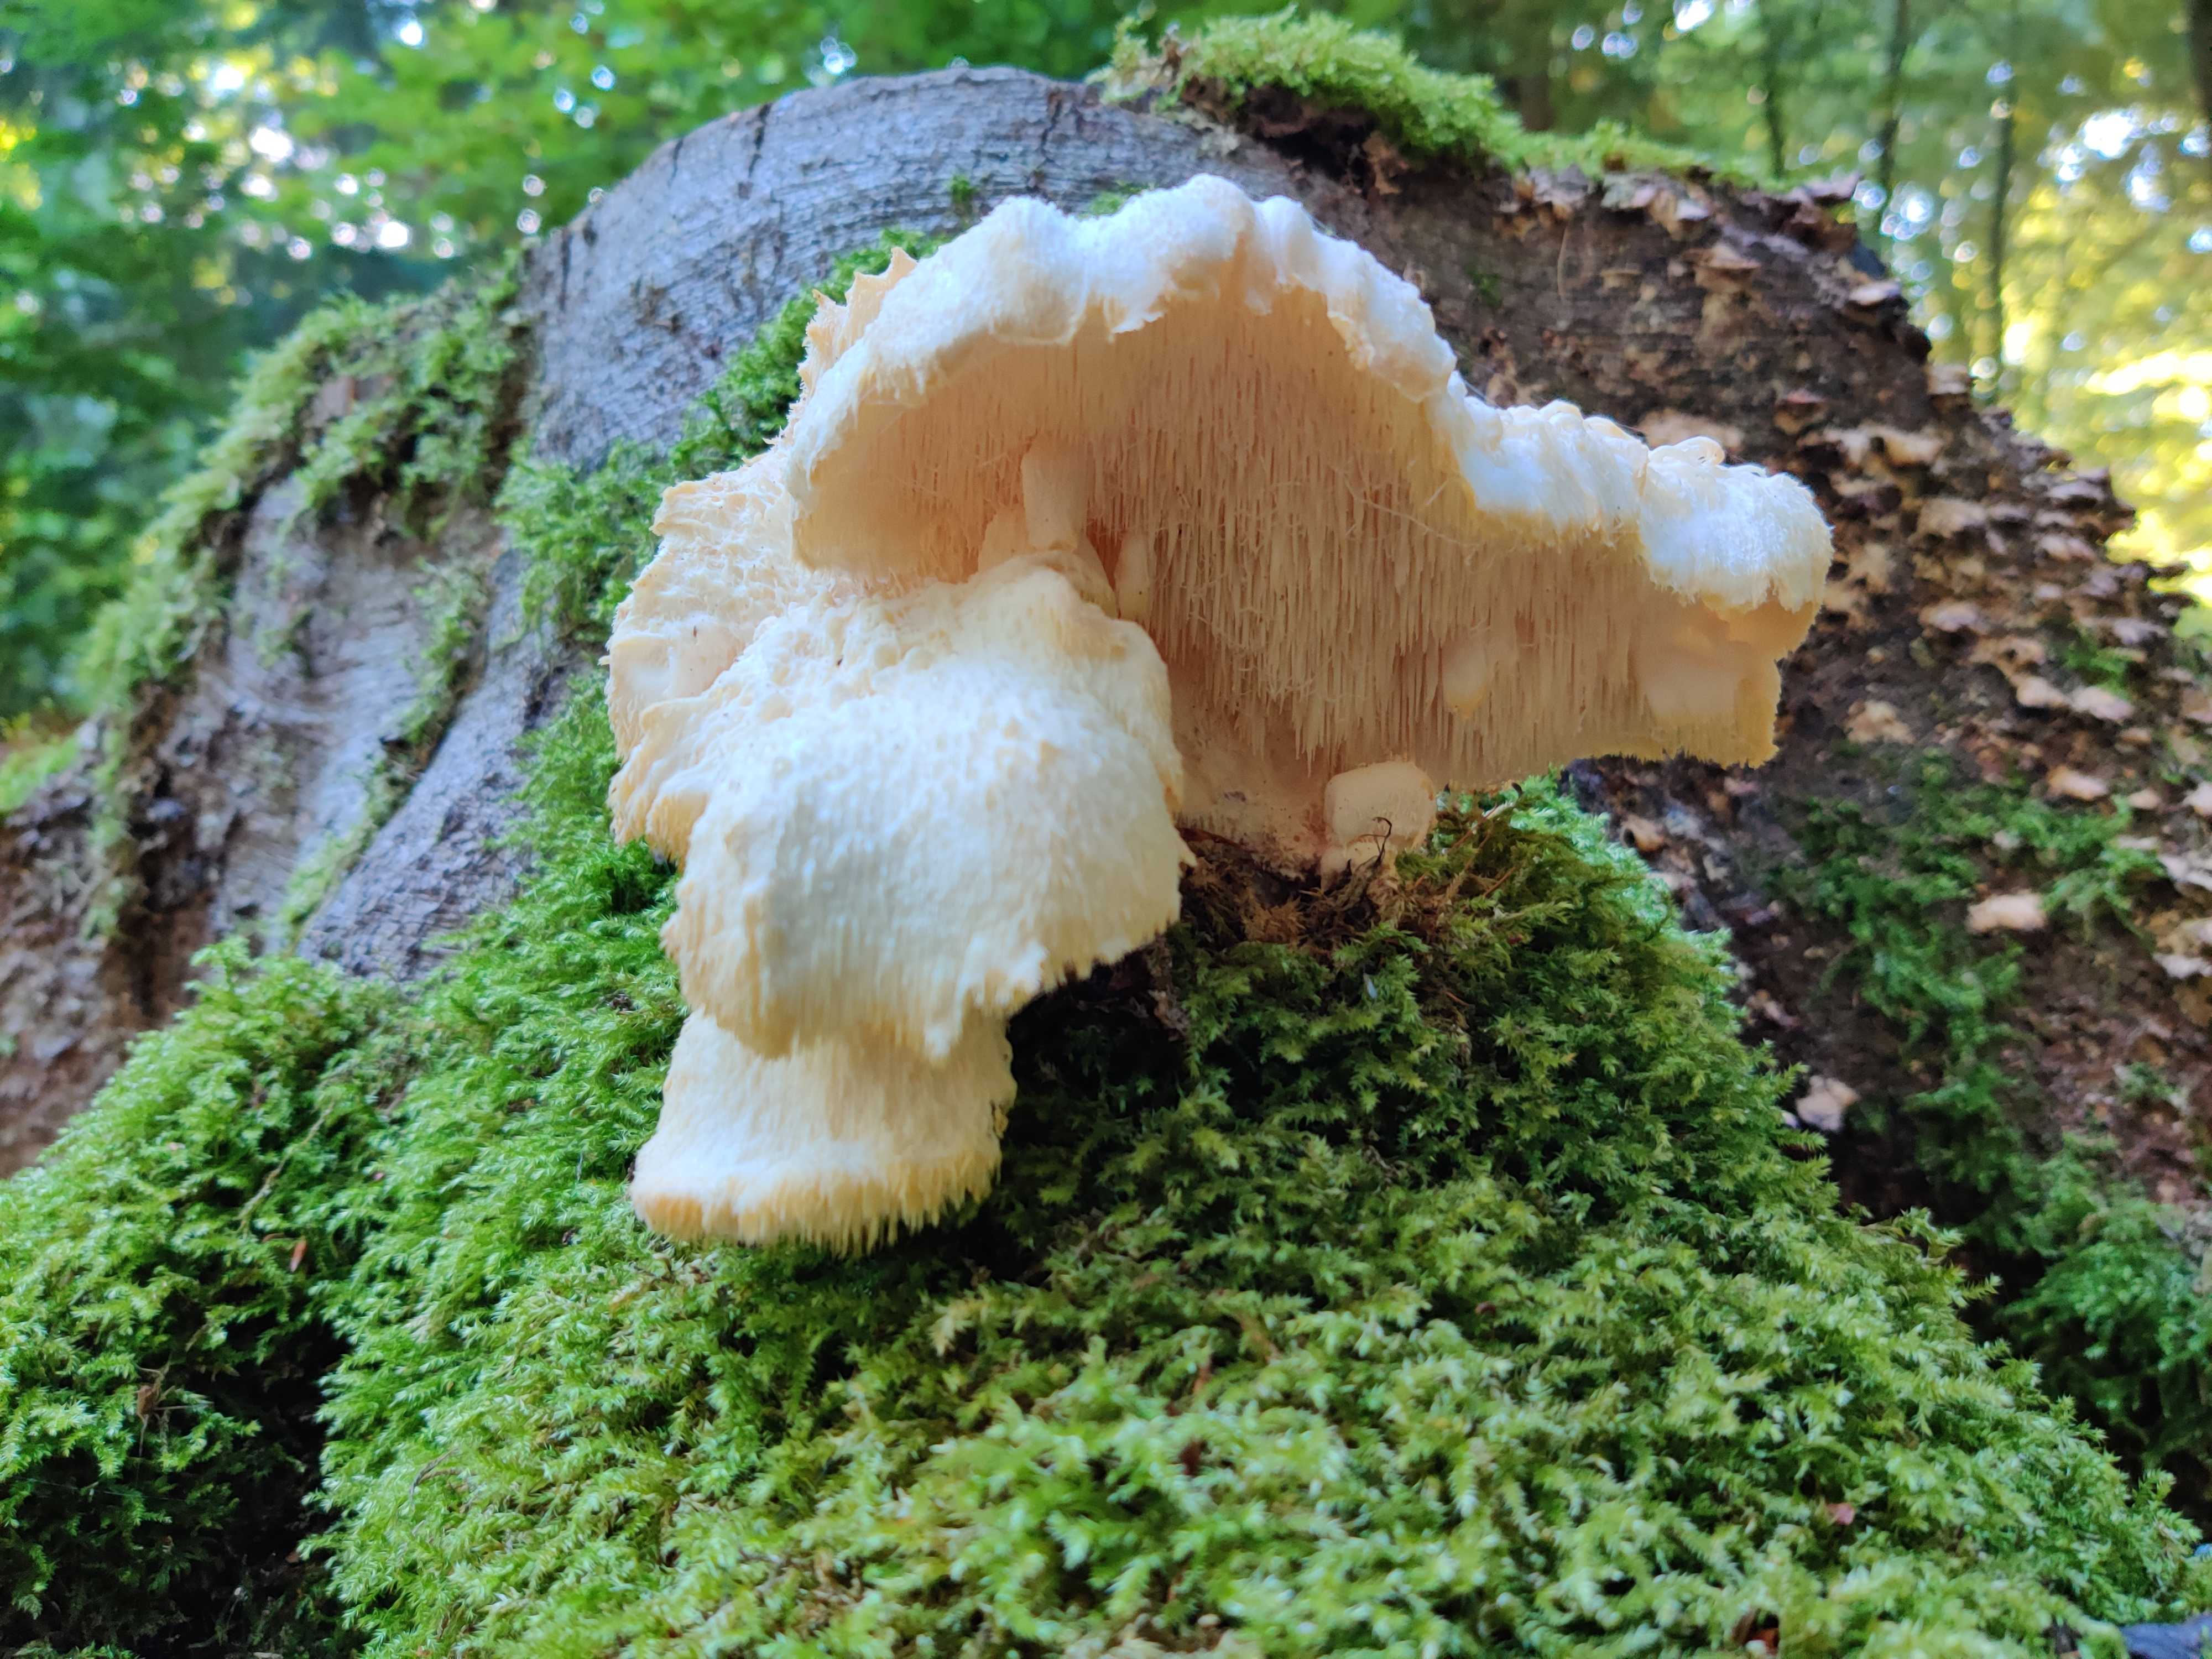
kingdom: Fungi
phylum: Basidiomycota
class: Agaricomycetes
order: Russulales
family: Hericiaceae
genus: Hericium
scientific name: Hericium cirrhatum
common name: børstepigsvamp
